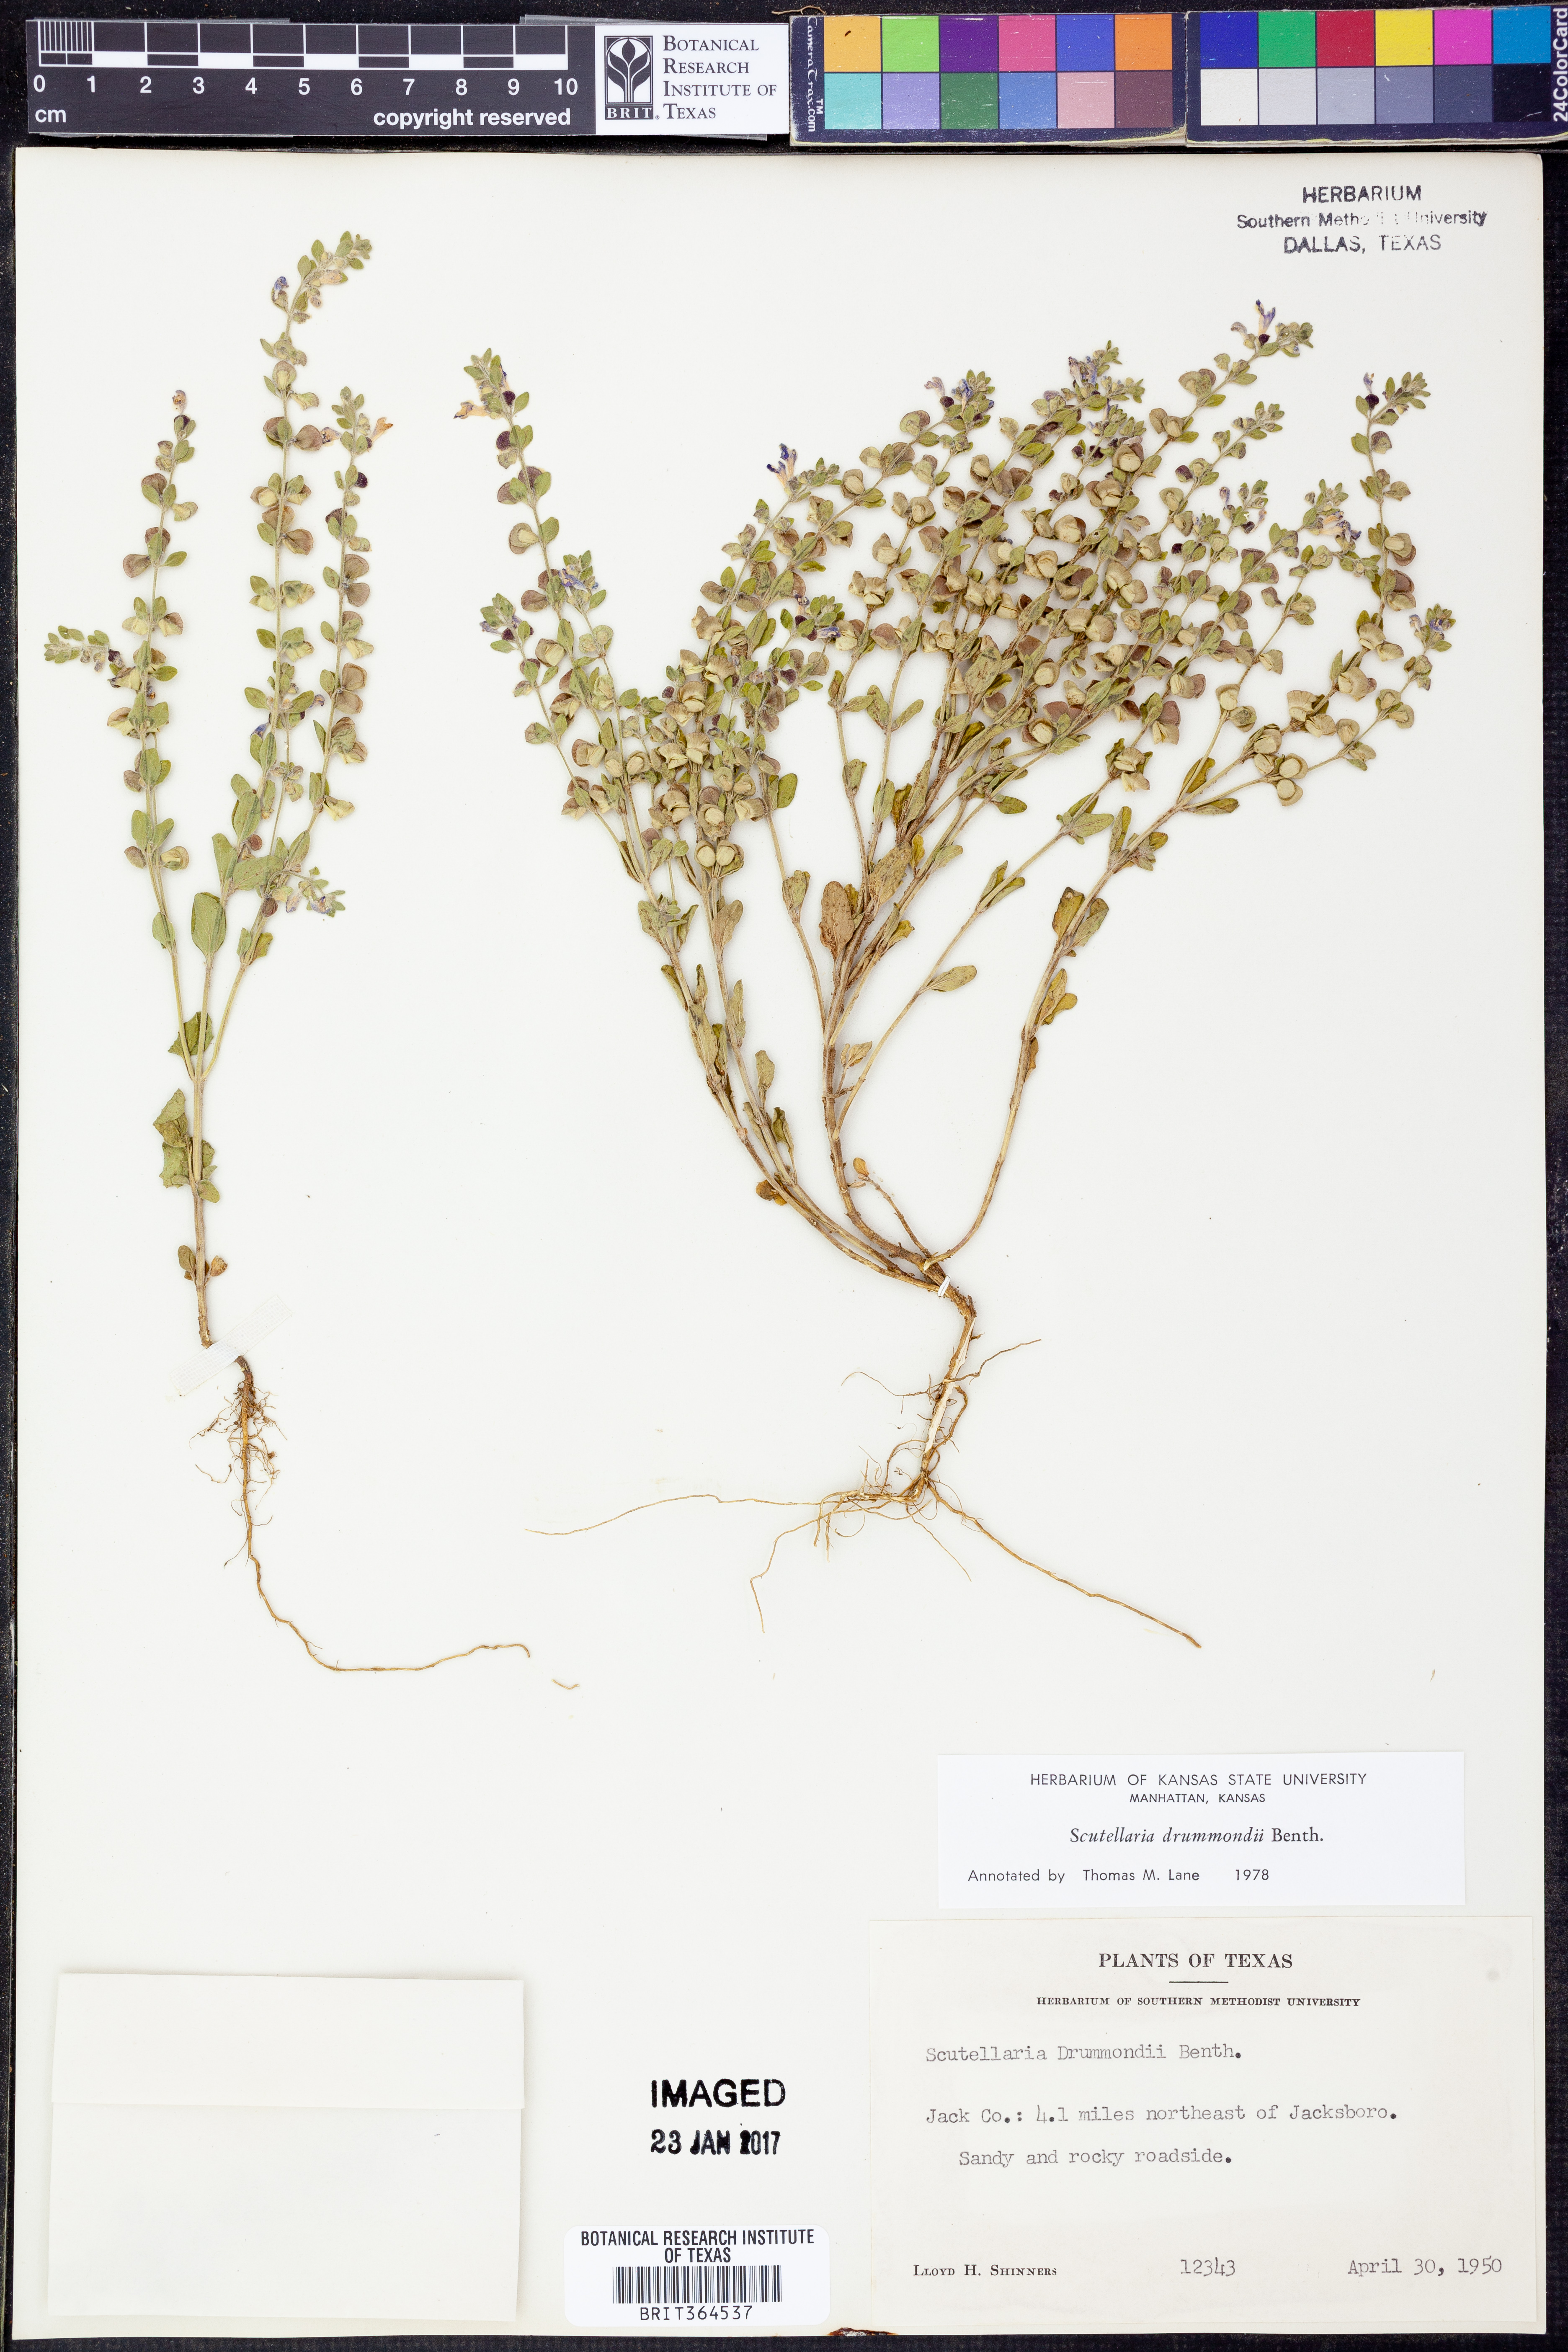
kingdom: Plantae
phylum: Tracheophyta
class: Magnoliopsida
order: Lamiales
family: Lamiaceae
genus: Scutellaria
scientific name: Scutellaria drummondii
